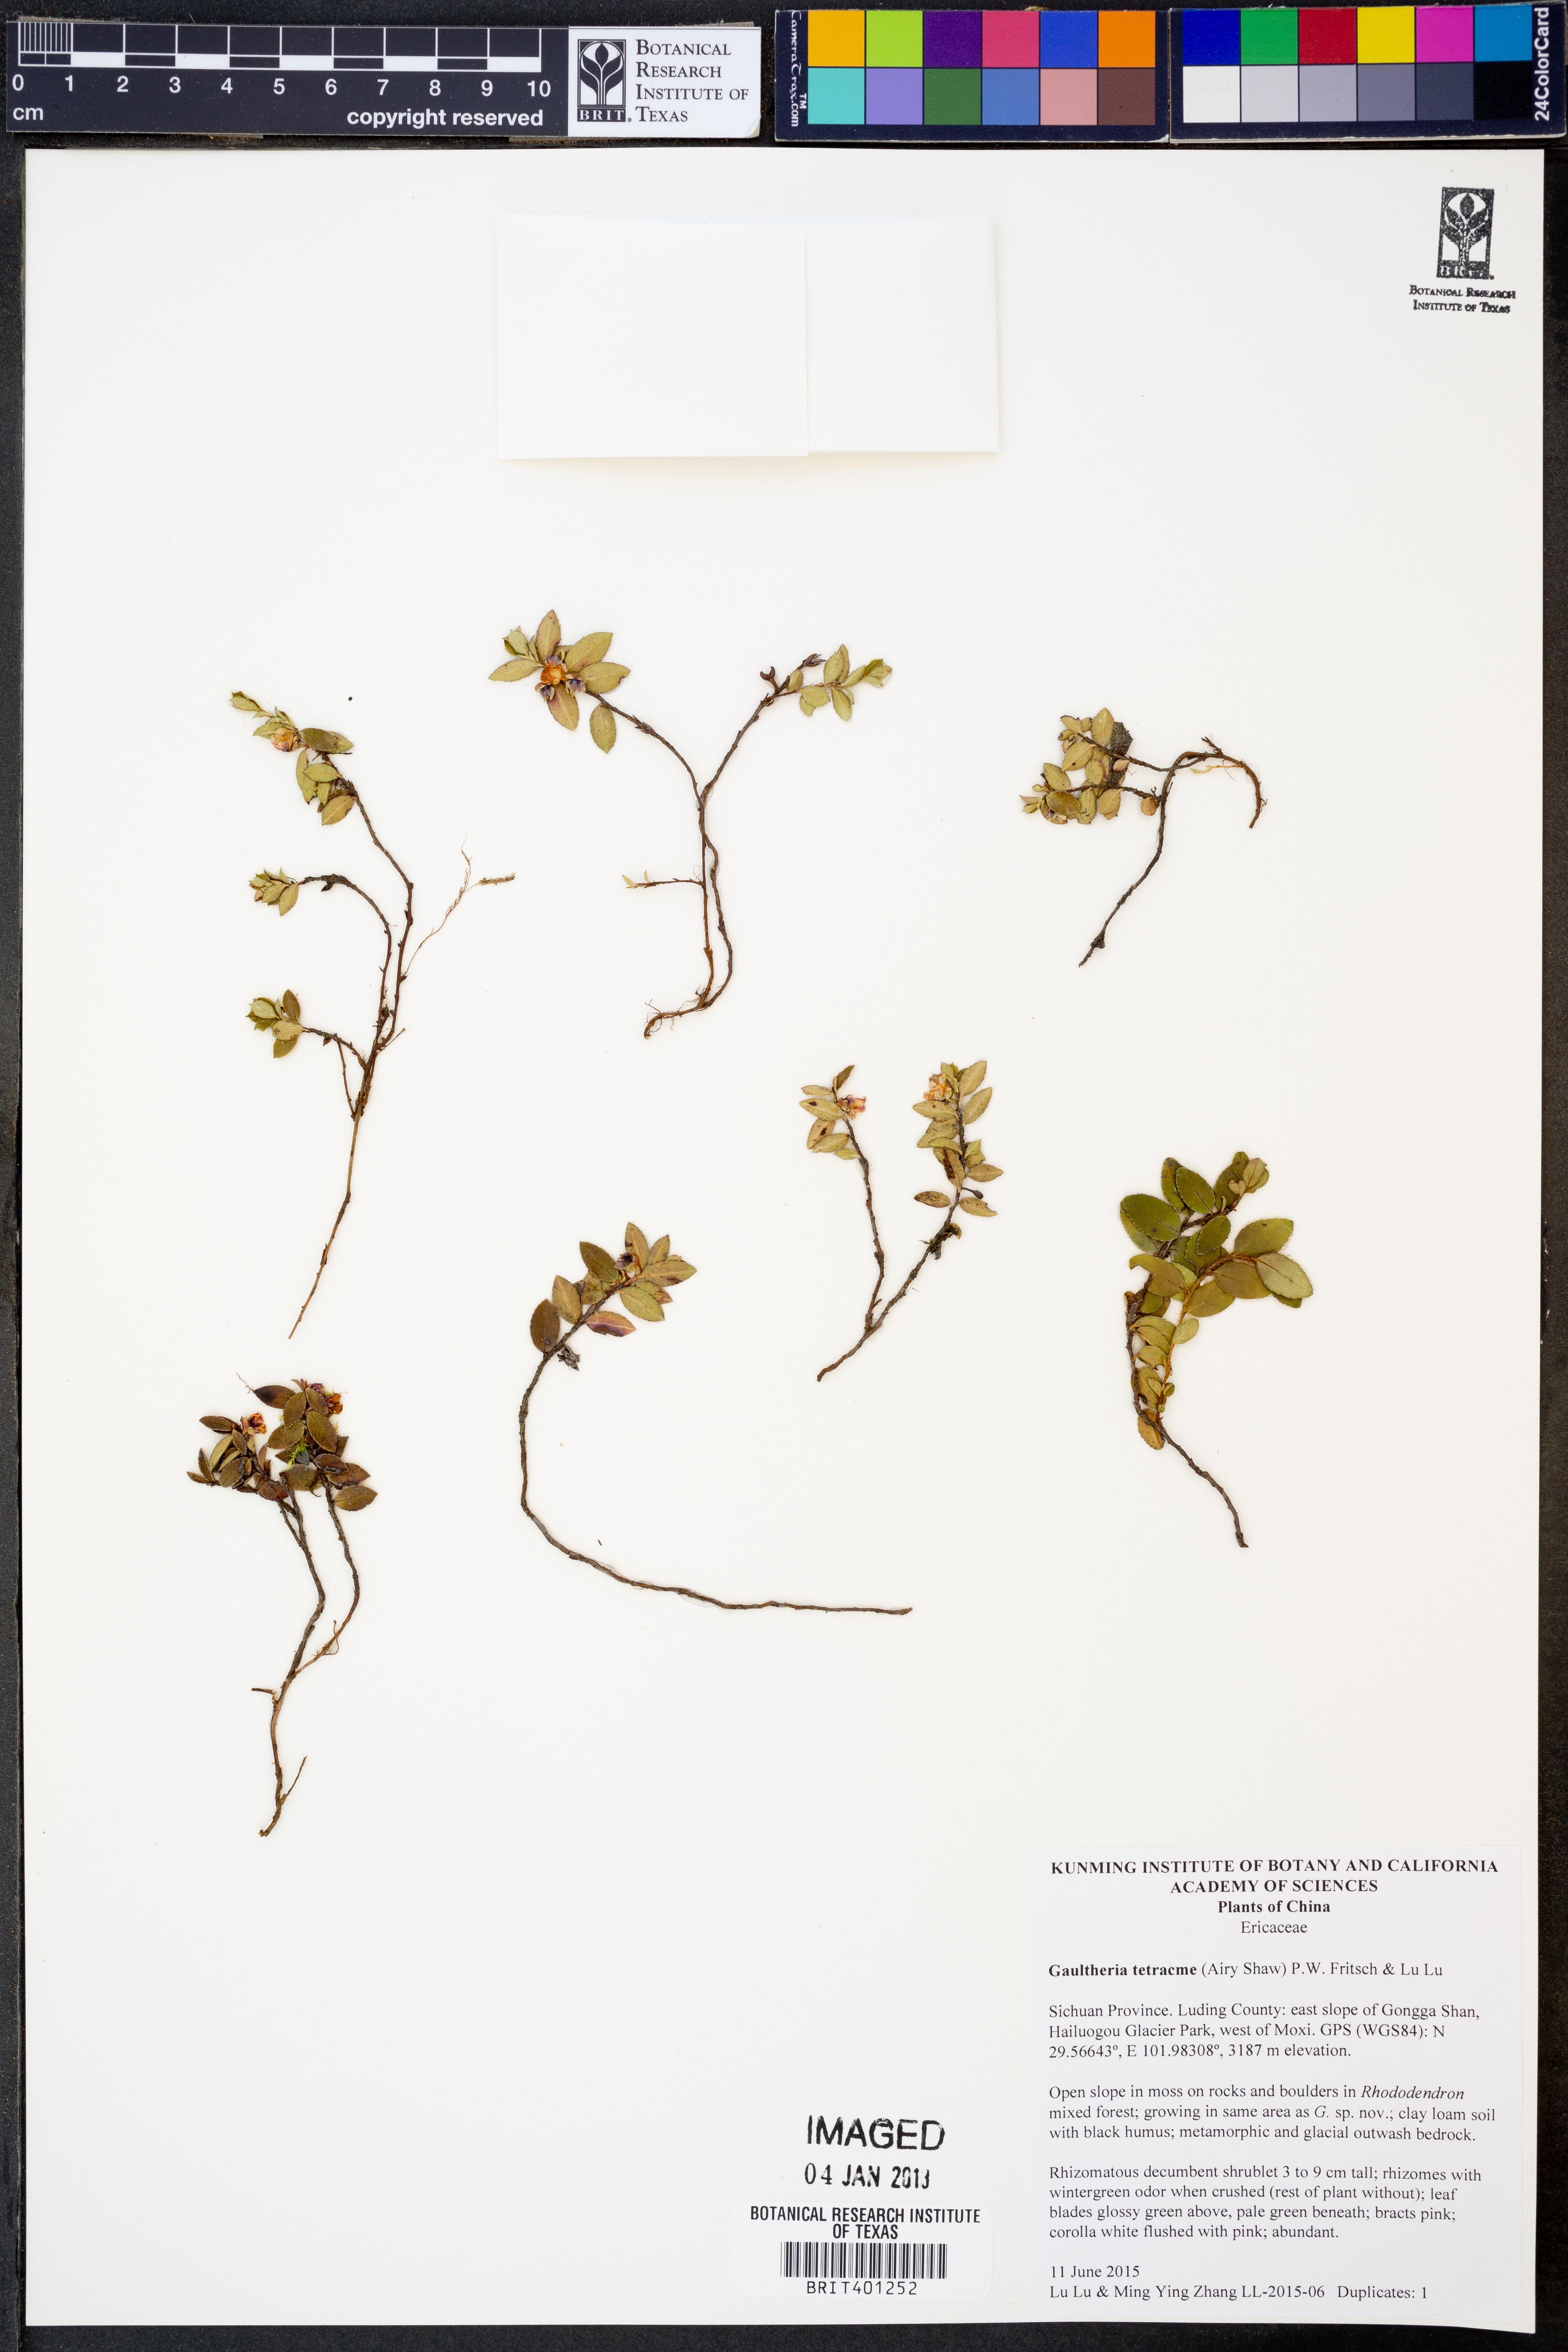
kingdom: Plantae
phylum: Tracheophyta
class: Magnoliopsida
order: Ericales
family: Ericaceae
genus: Gaultheria
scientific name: Gaultheria tetracme
